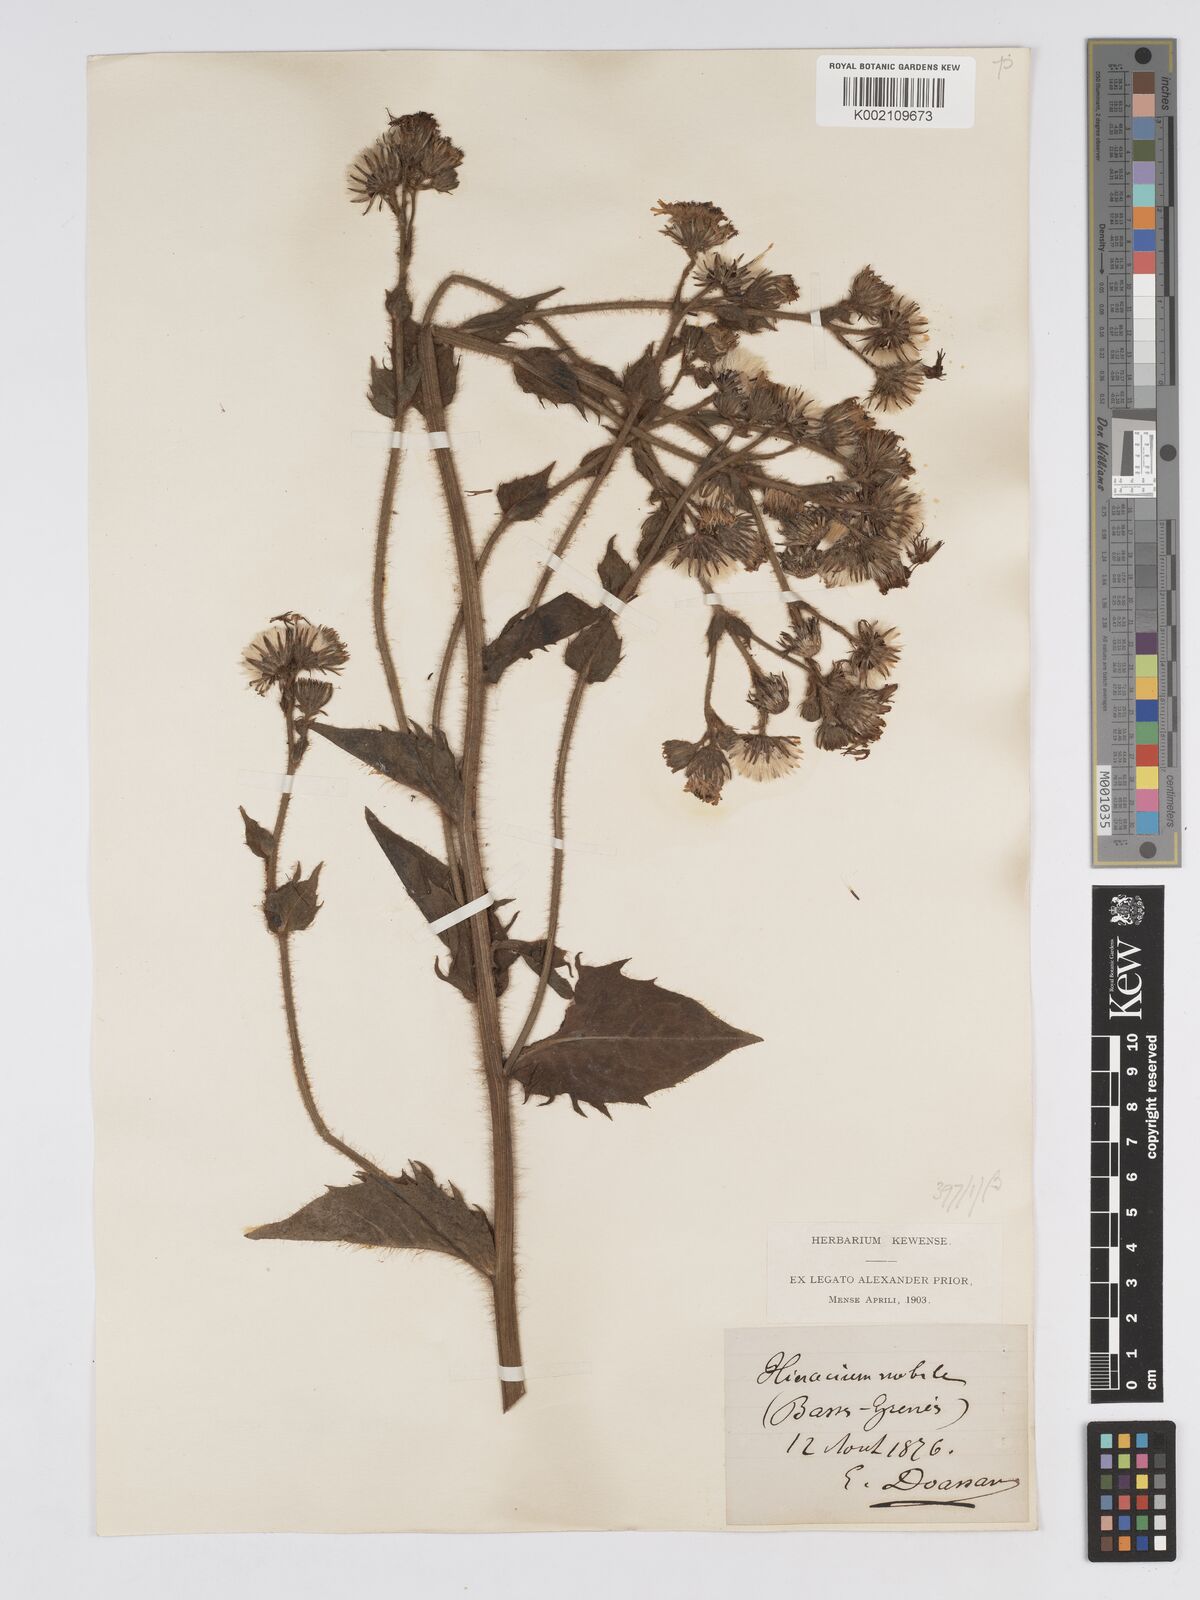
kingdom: Plantae
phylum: Tracheophyta
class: Magnoliopsida
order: Asterales
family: Asteraceae
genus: Hieracium
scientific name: Hieracium nobile
